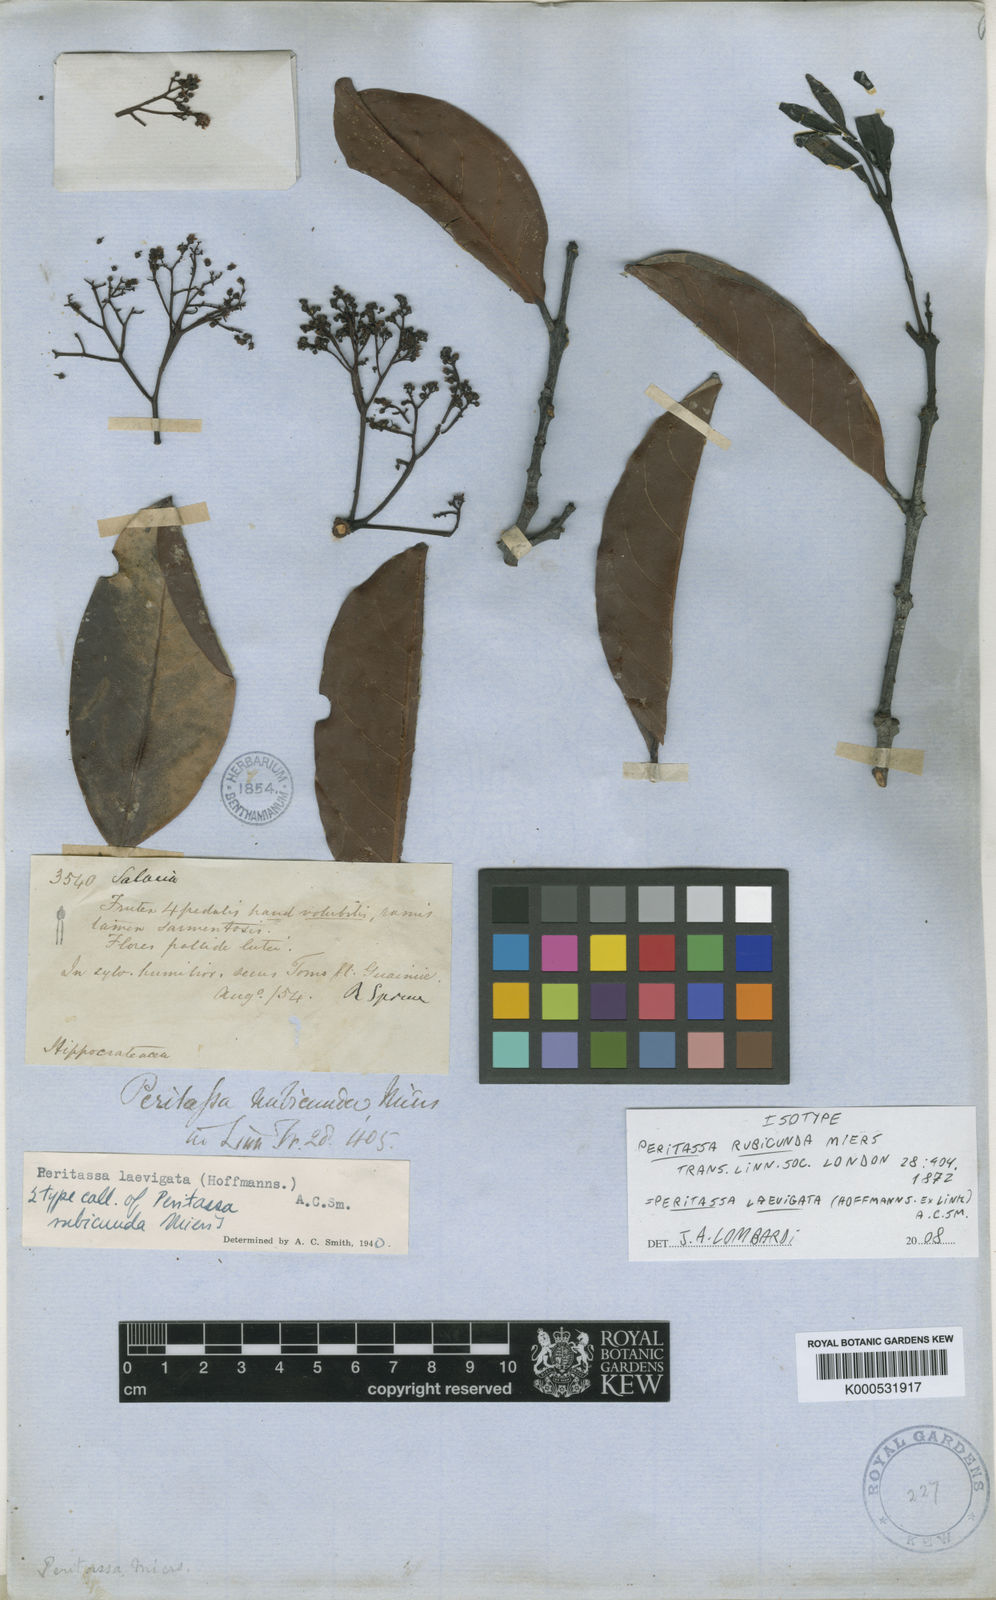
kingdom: Plantae
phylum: Tracheophyta
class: Magnoliopsida
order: Celastrales
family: Celastraceae
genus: Peritassa
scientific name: Peritassa laevigata
